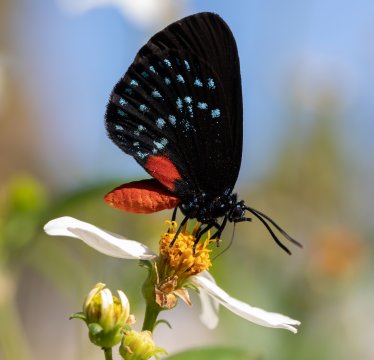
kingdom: Animalia
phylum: Arthropoda
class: Insecta
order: Lepidoptera
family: Lycaenidae
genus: Eumaeus
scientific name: Eumaeus atala
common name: Atala
